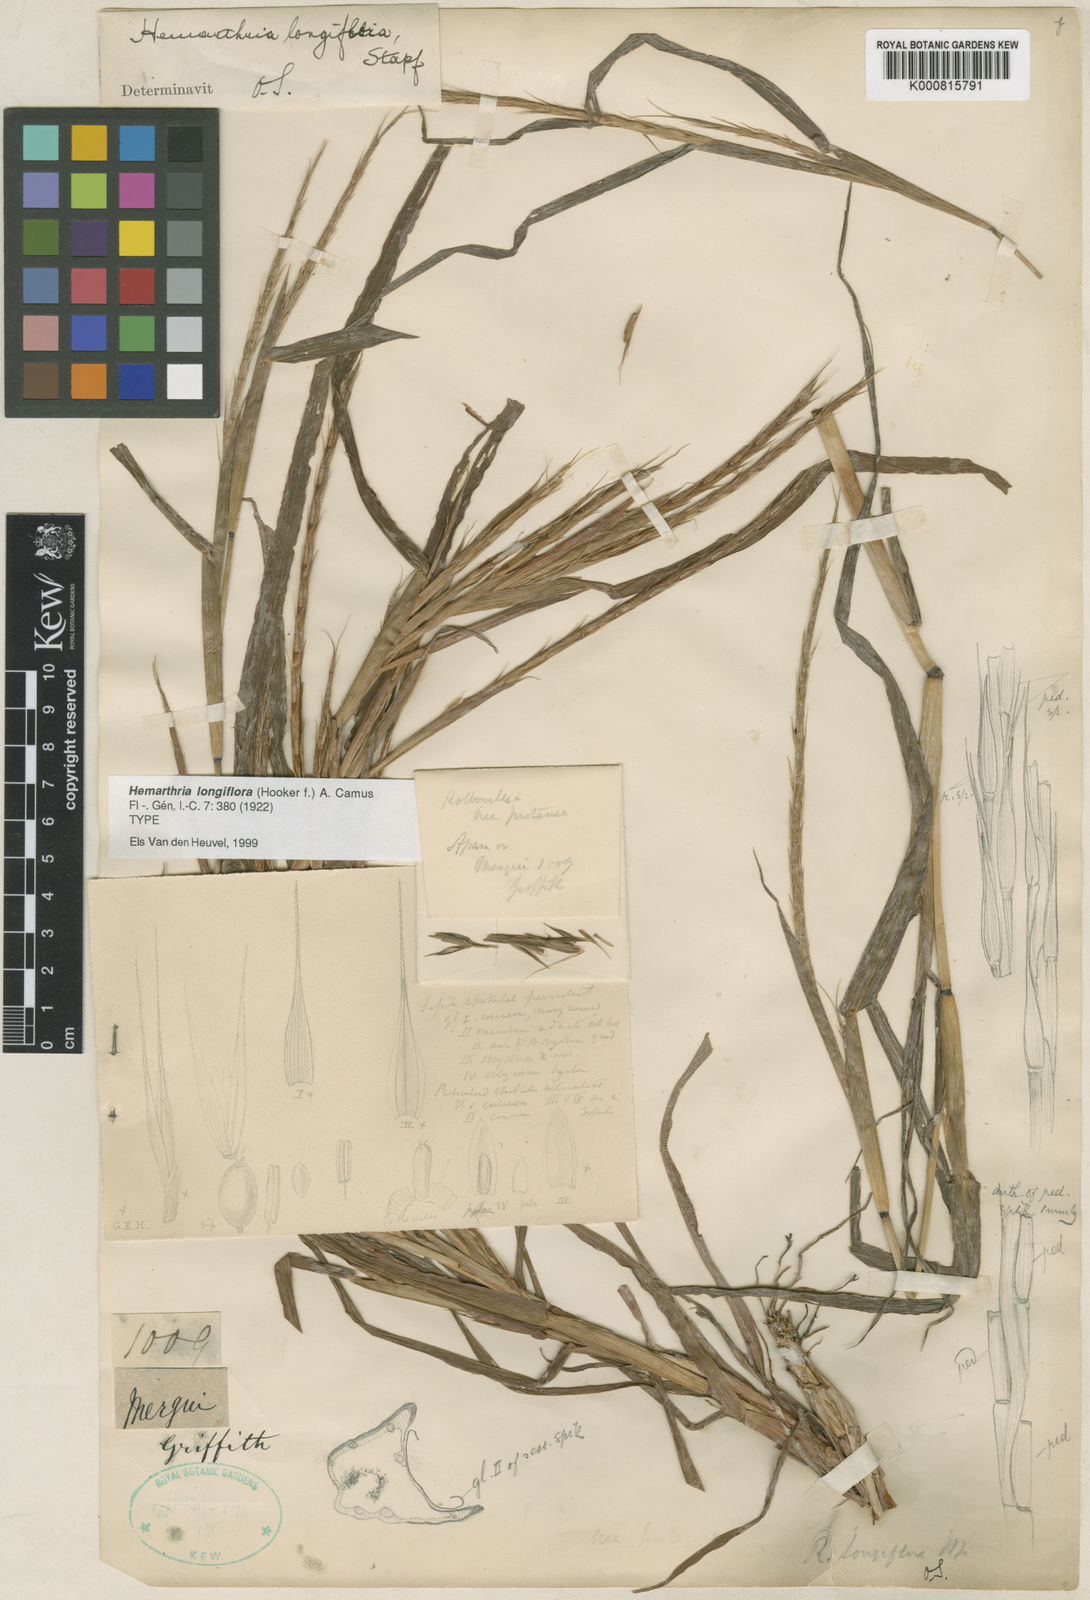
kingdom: Plantae
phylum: Tracheophyta
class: Liliopsida
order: Poales
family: Poaceae
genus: Hemarthria
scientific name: Hemarthria longiflora
